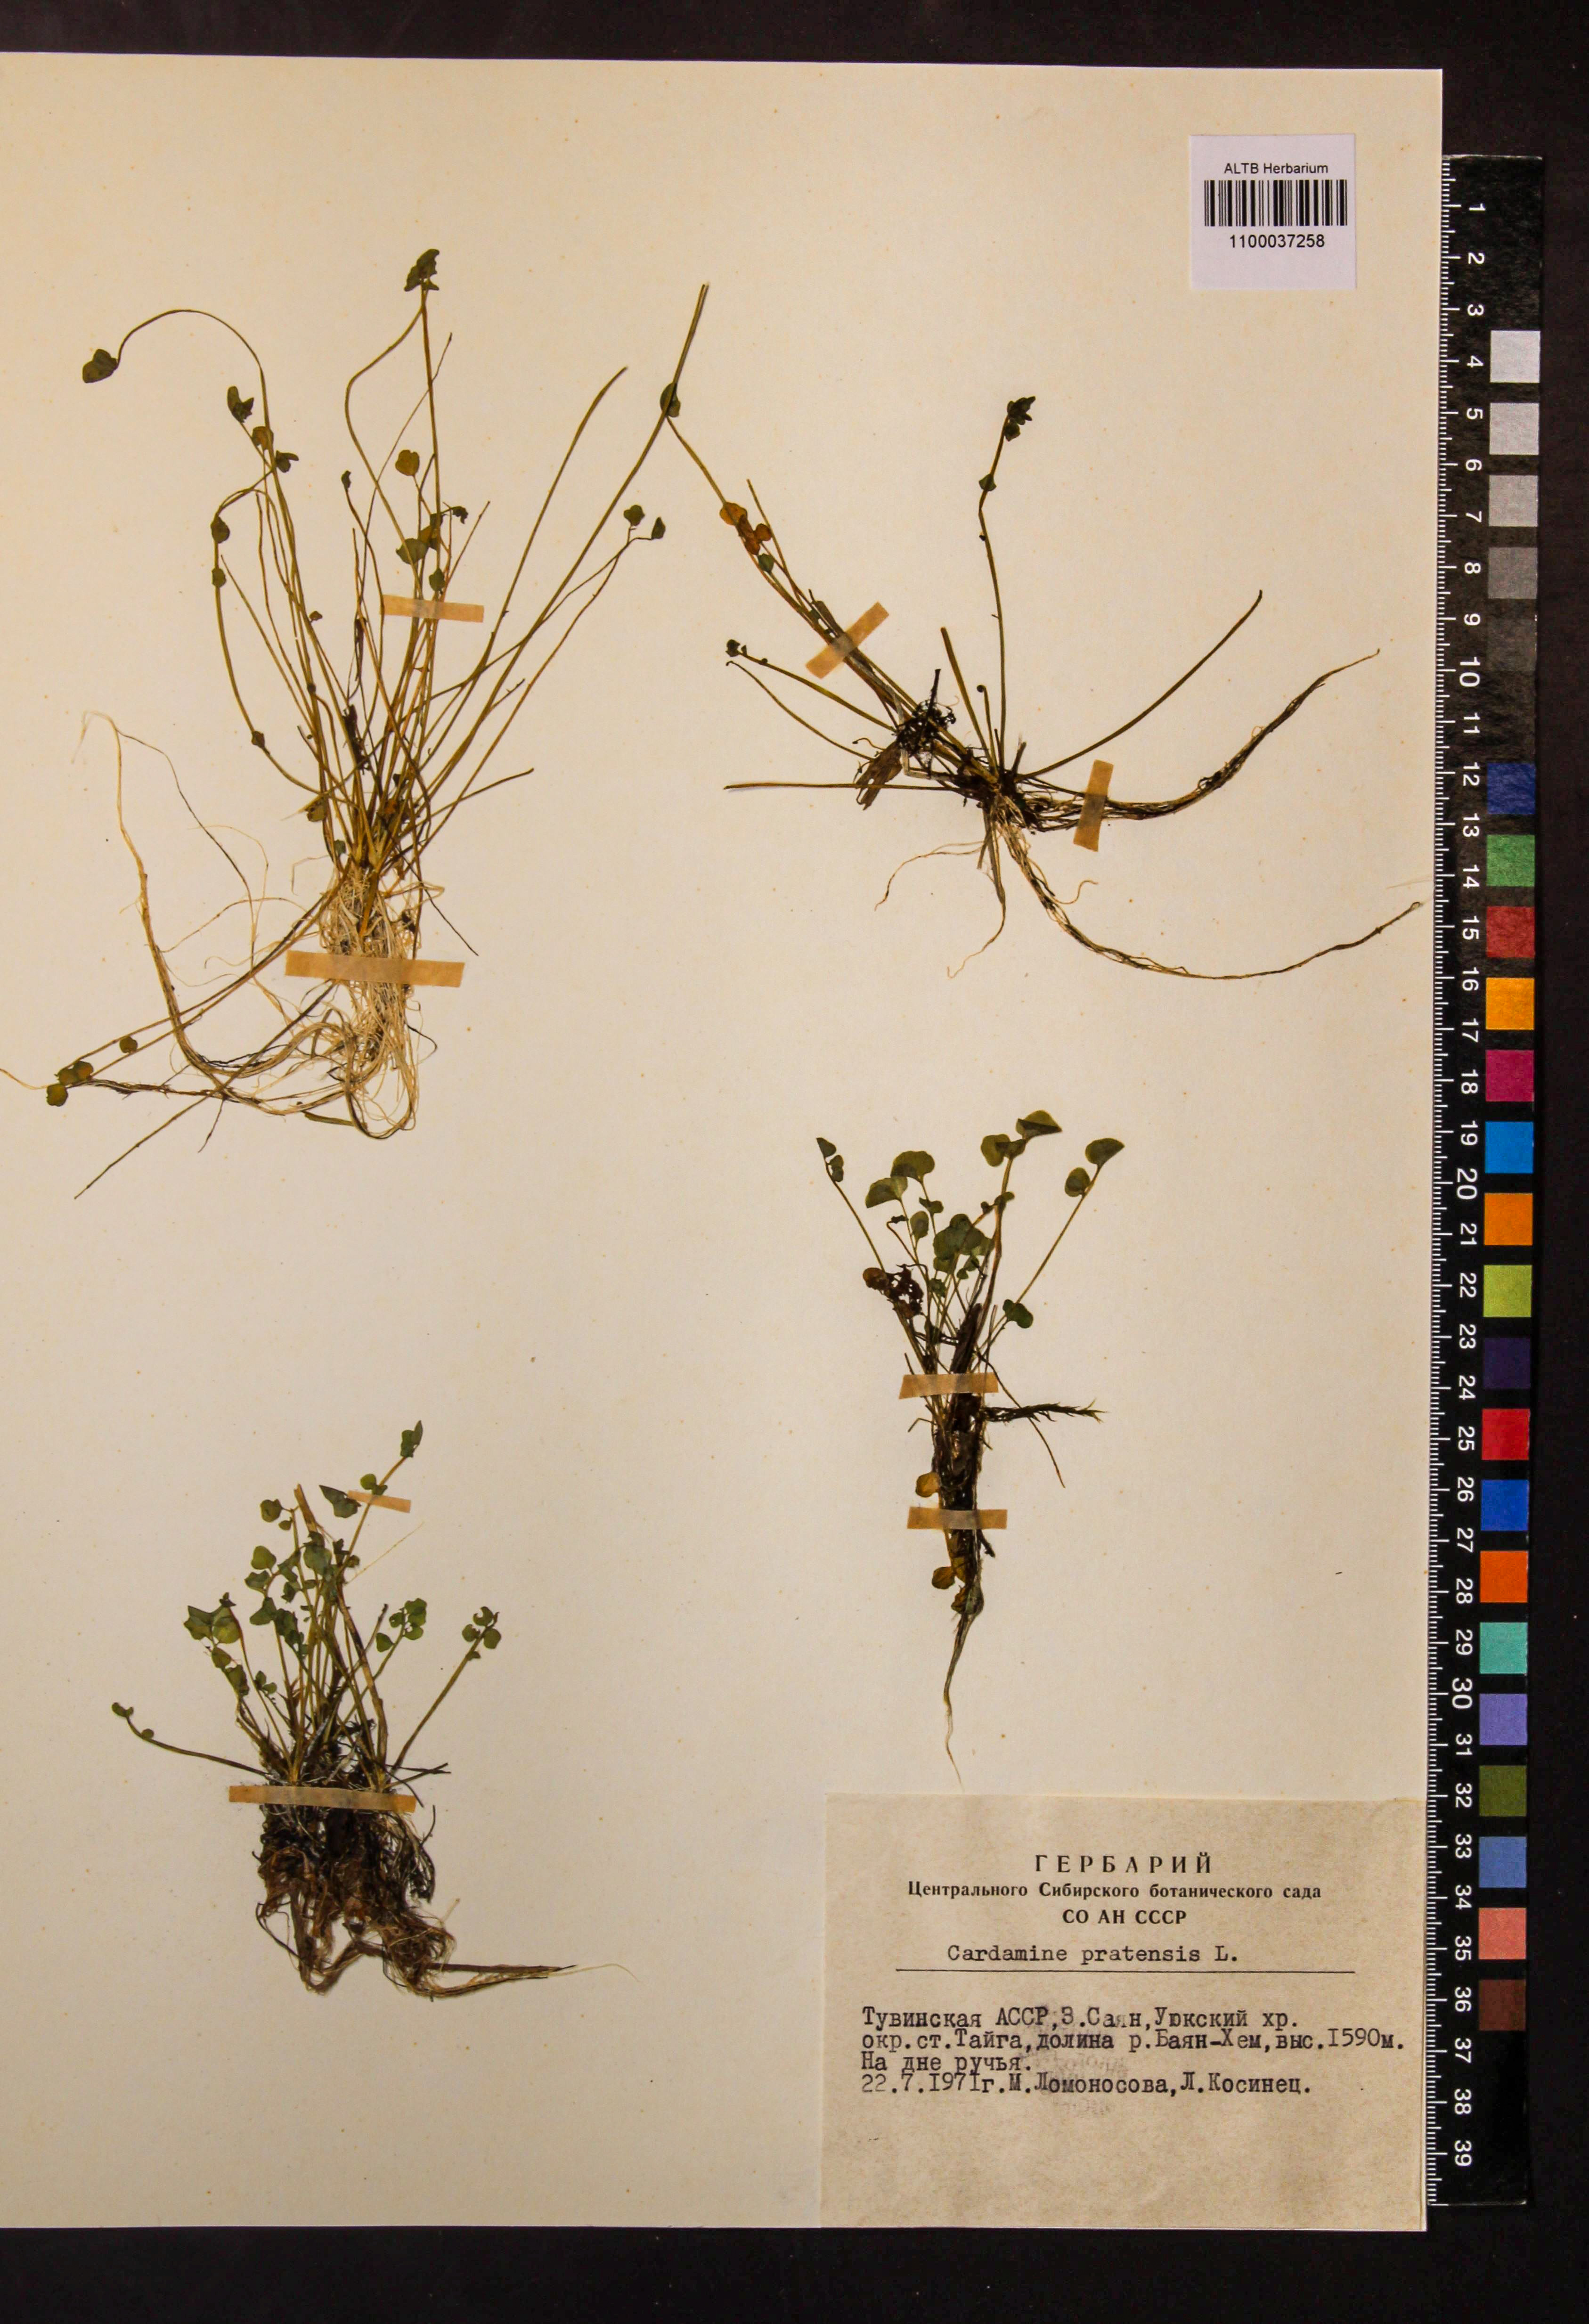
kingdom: Plantae
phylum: Tracheophyta
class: Magnoliopsida
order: Brassicales
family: Brassicaceae
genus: Cardamine
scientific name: Cardamine pratensis
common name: Cuckoo flower
